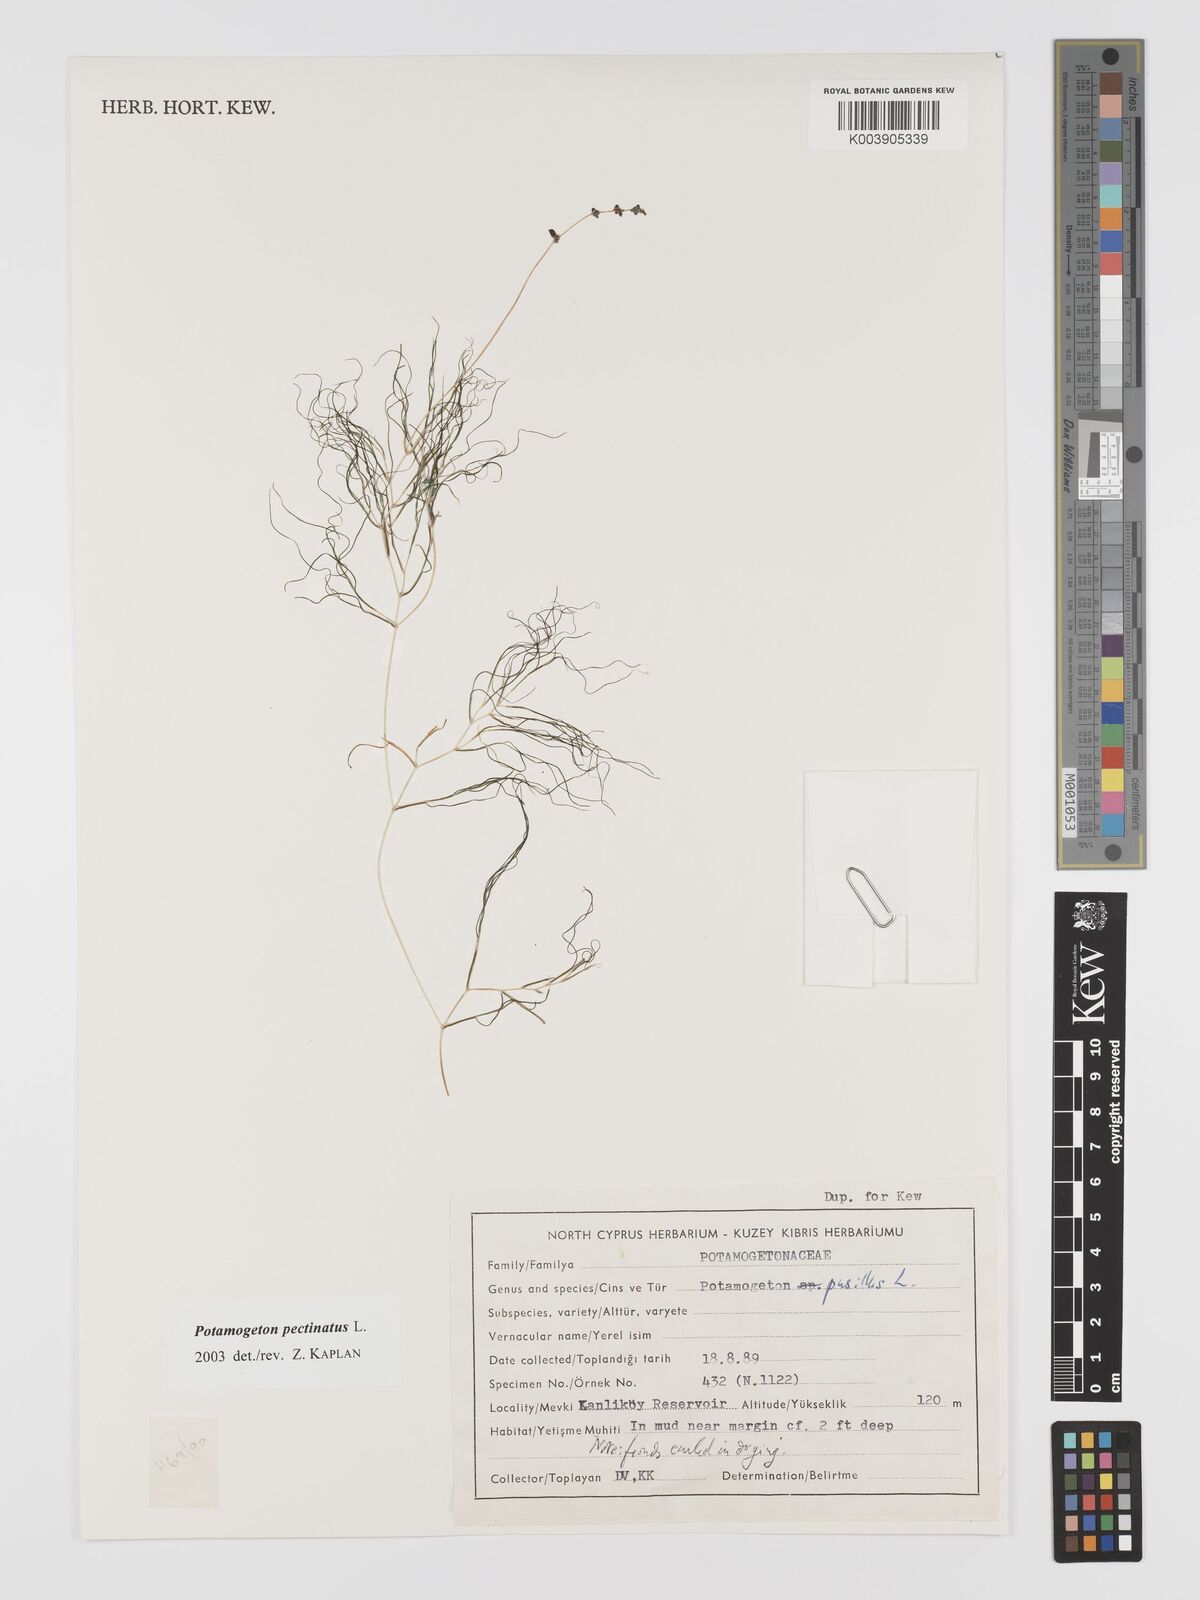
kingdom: Plantae
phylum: Tracheophyta
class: Liliopsida
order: Alismatales
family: Potamogetonaceae
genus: Stuckenia
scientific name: Stuckenia pectinata
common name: Sago pondweed
